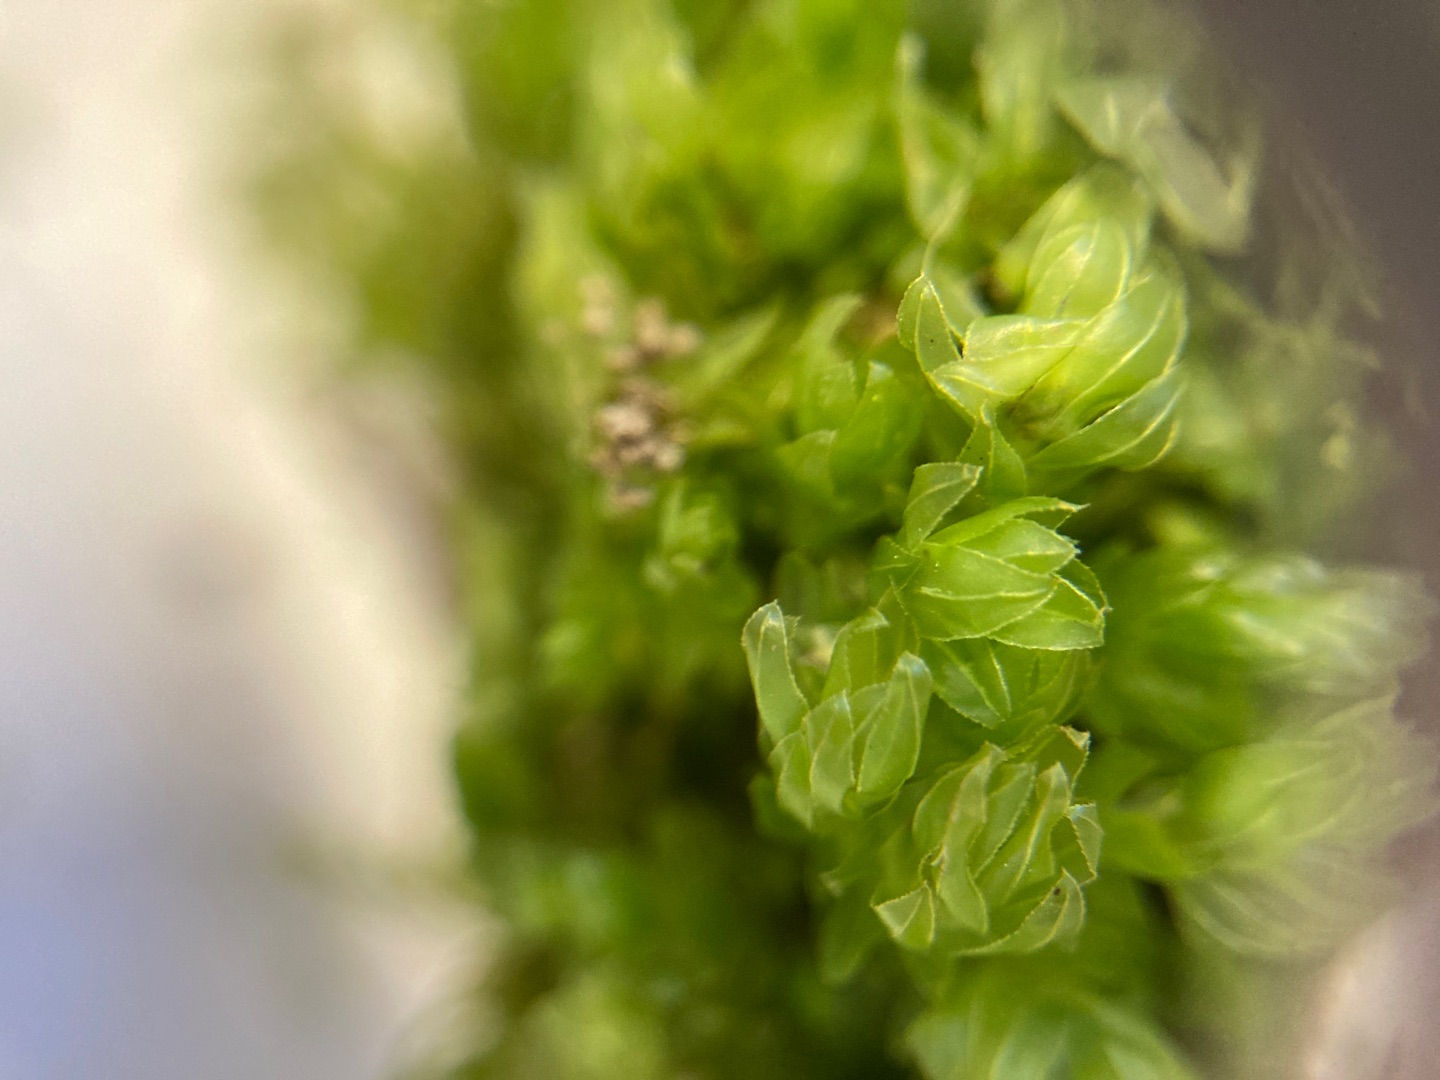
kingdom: Plantae
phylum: Bryophyta
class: Bryopsida
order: Bryales
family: Mniaceae
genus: Mnium
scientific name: Mnium hornum
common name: Brunfiltet stjernemos
